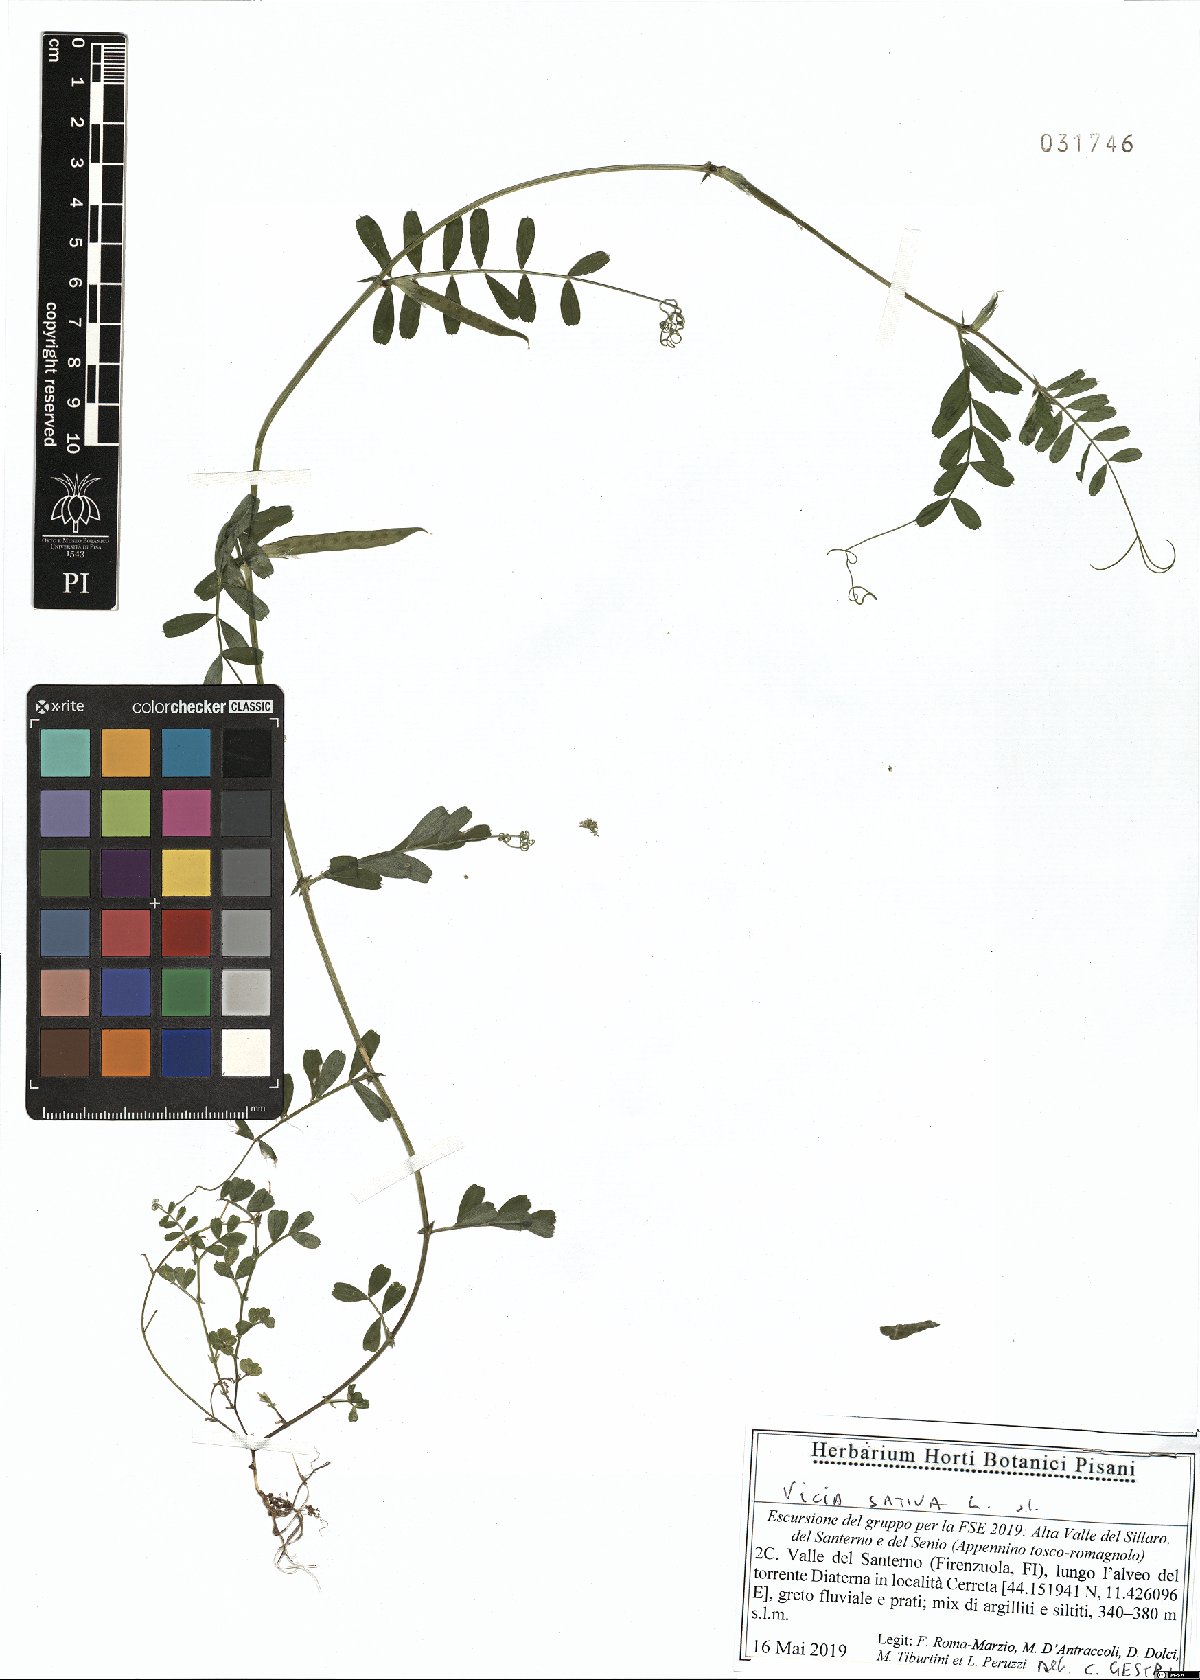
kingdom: Plantae
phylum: Tracheophyta
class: Magnoliopsida
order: Fabales
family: Fabaceae
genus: Vicia
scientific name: Vicia sativa
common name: Garden vetch
